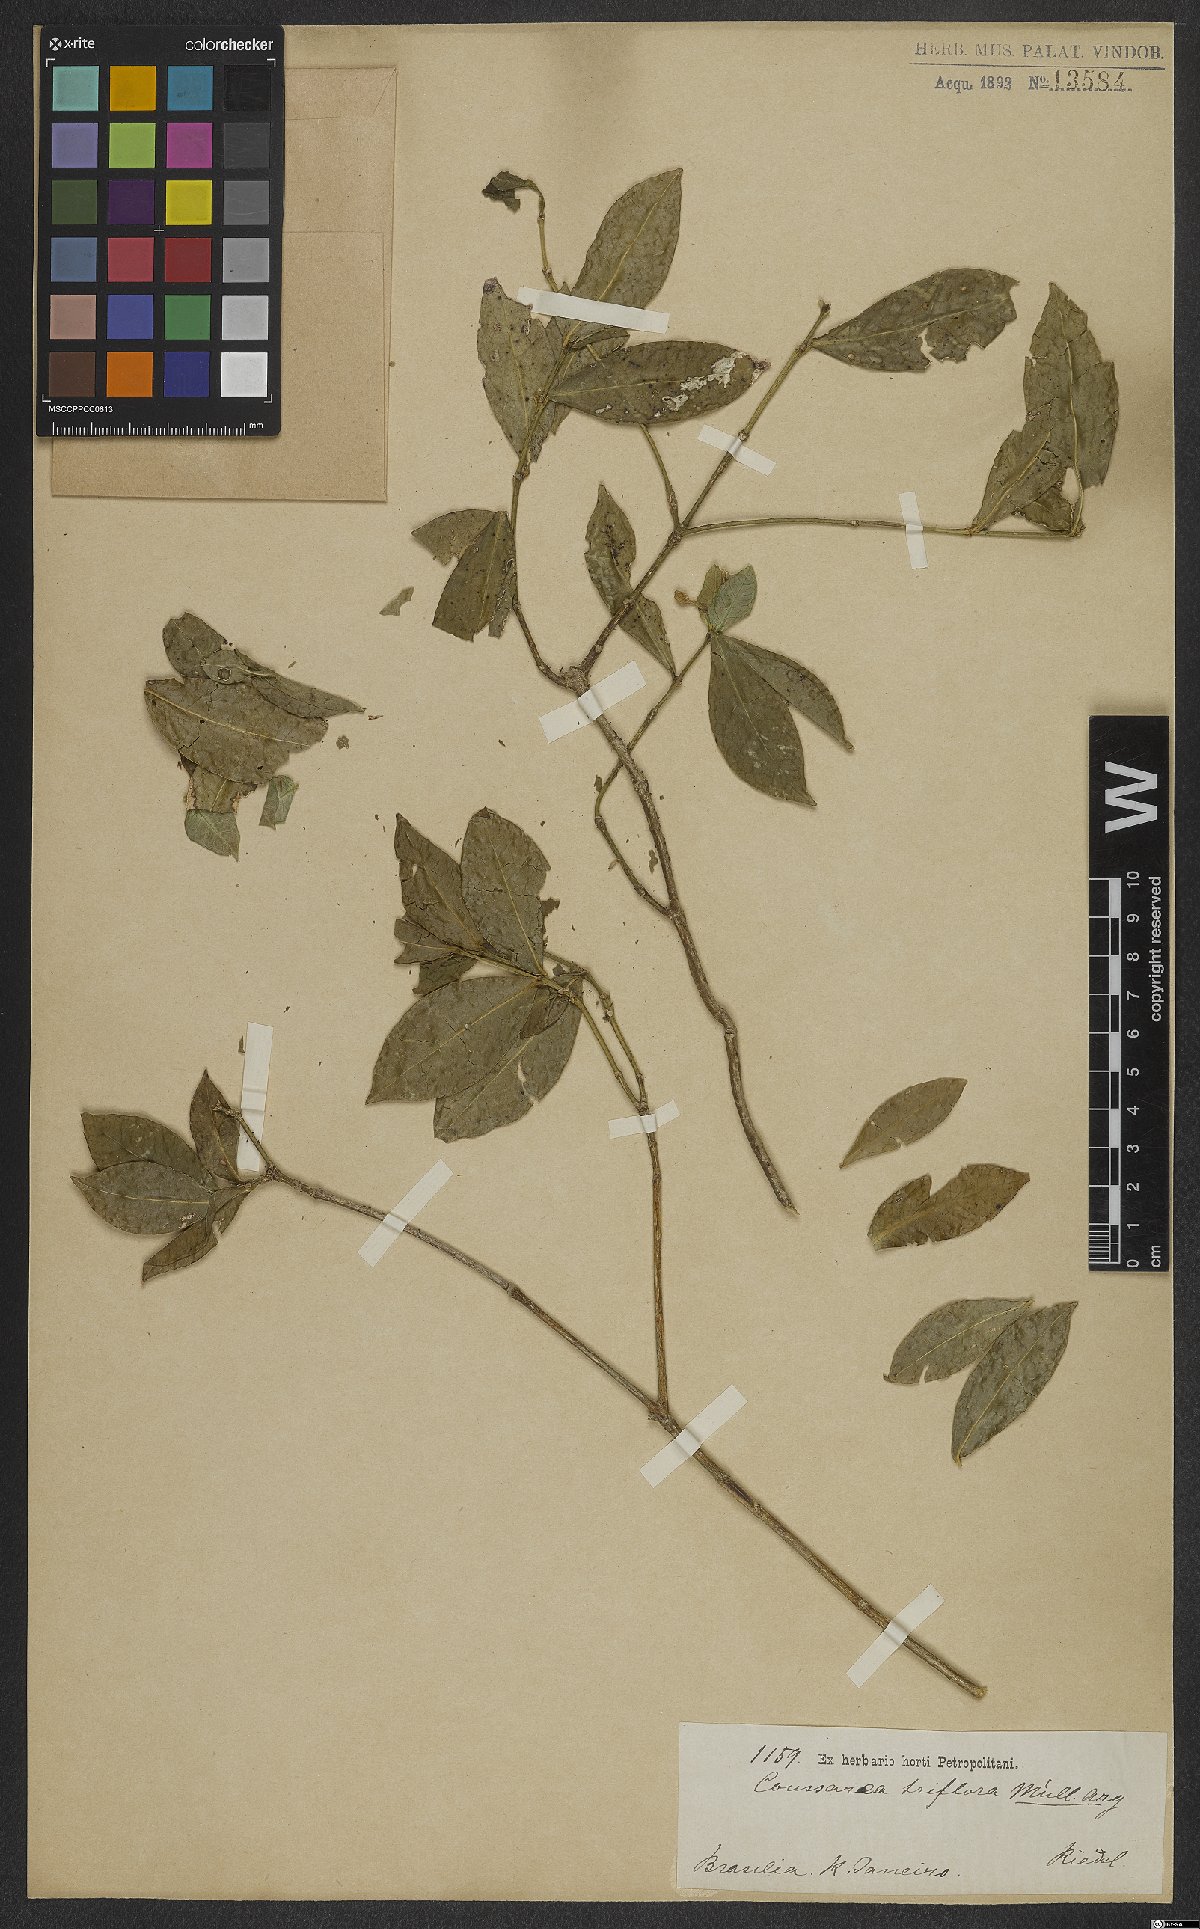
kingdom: Plantae
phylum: Tracheophyta
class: Magnoliopsida
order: Gentianales
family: Rubiaceae
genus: Coussarea
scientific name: Coussarea triflora
